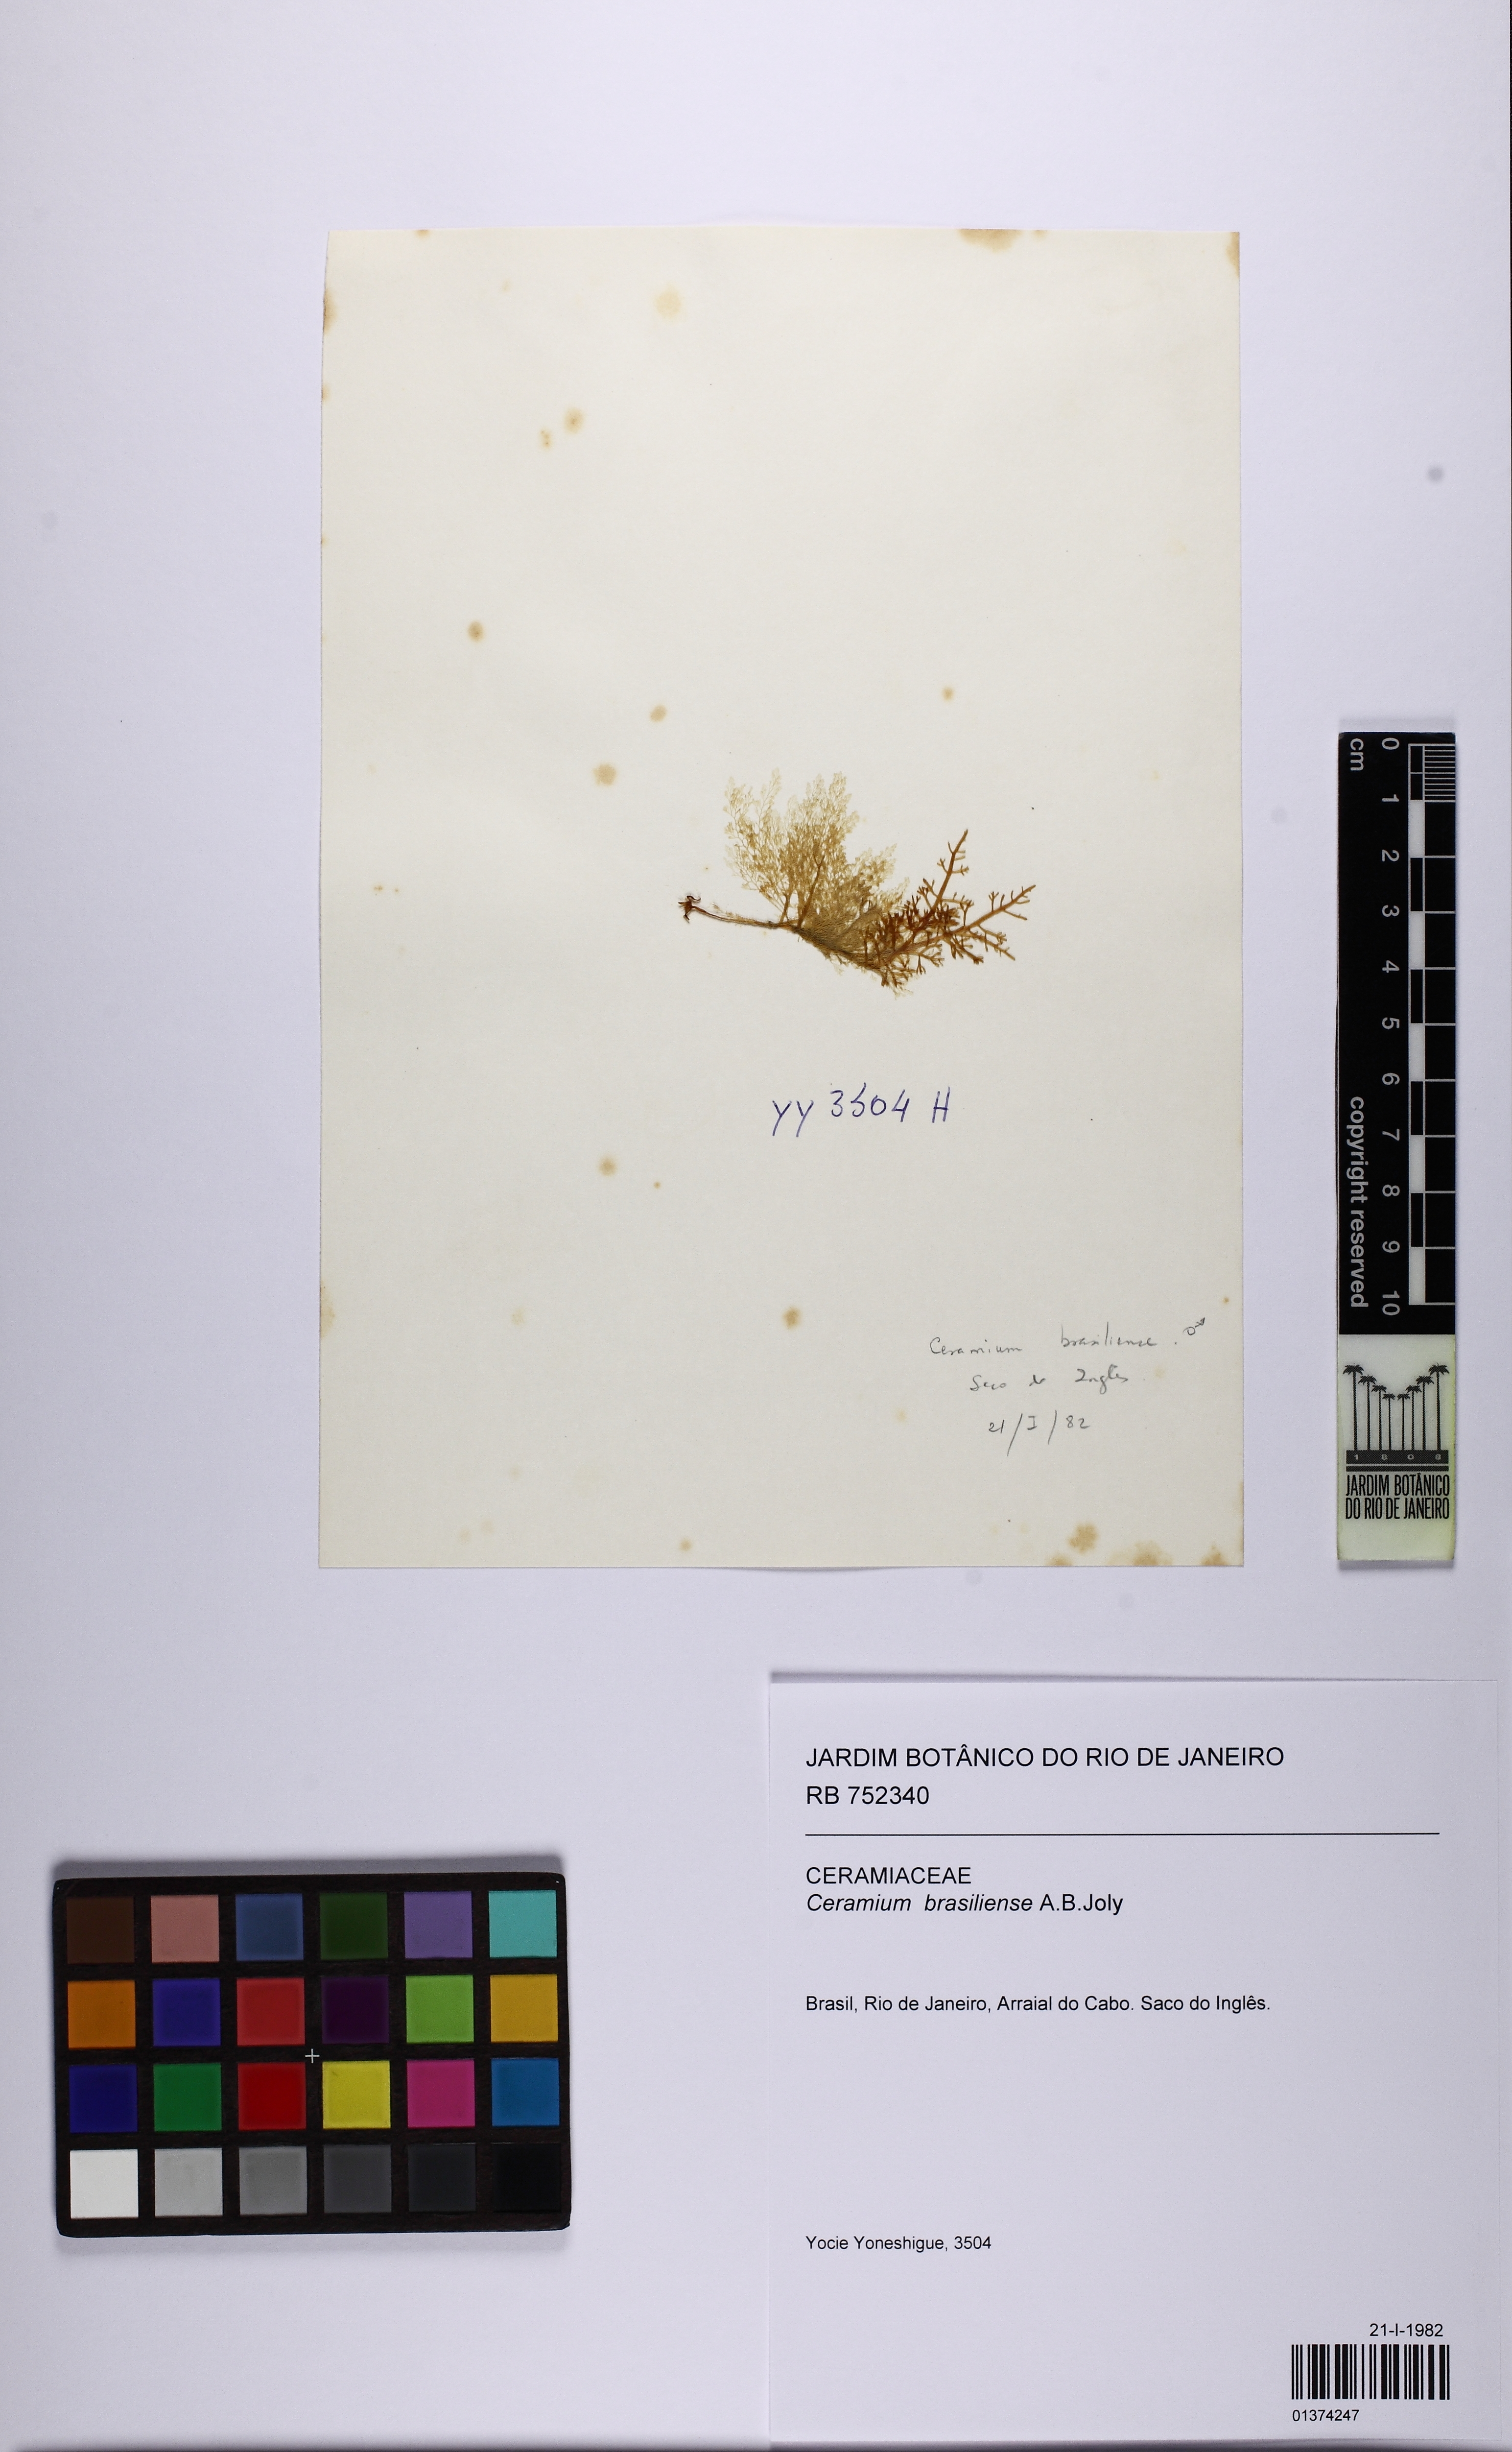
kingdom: Plantae
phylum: Rhodophyta
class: Florideophyceae
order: Ceramiales
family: Ceramiaceae
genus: Ceramium
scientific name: Ceramium brasiliense
